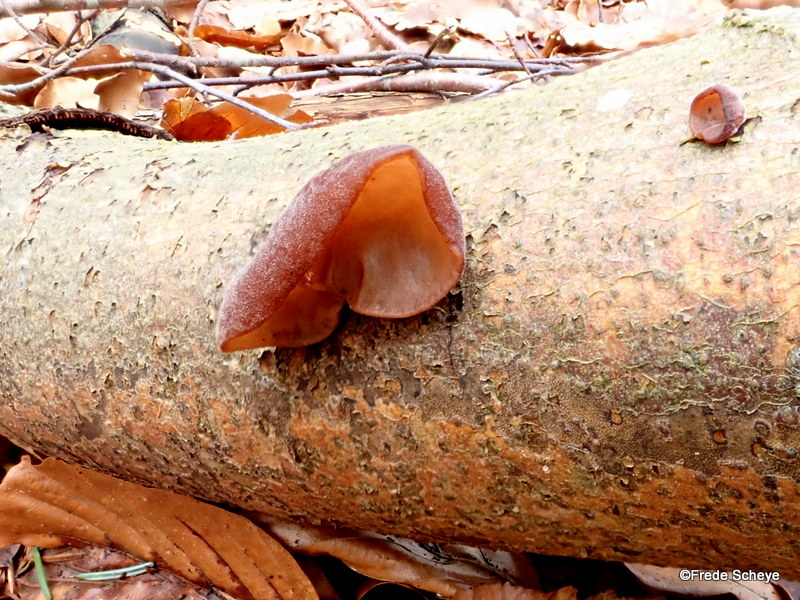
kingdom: Fungi
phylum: Basidiomycota
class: Agaricomycetes
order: Auriculariales
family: Auriculariaceae
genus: Auricularia
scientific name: Auricularia auricula-judae
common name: almindelig judasøre
